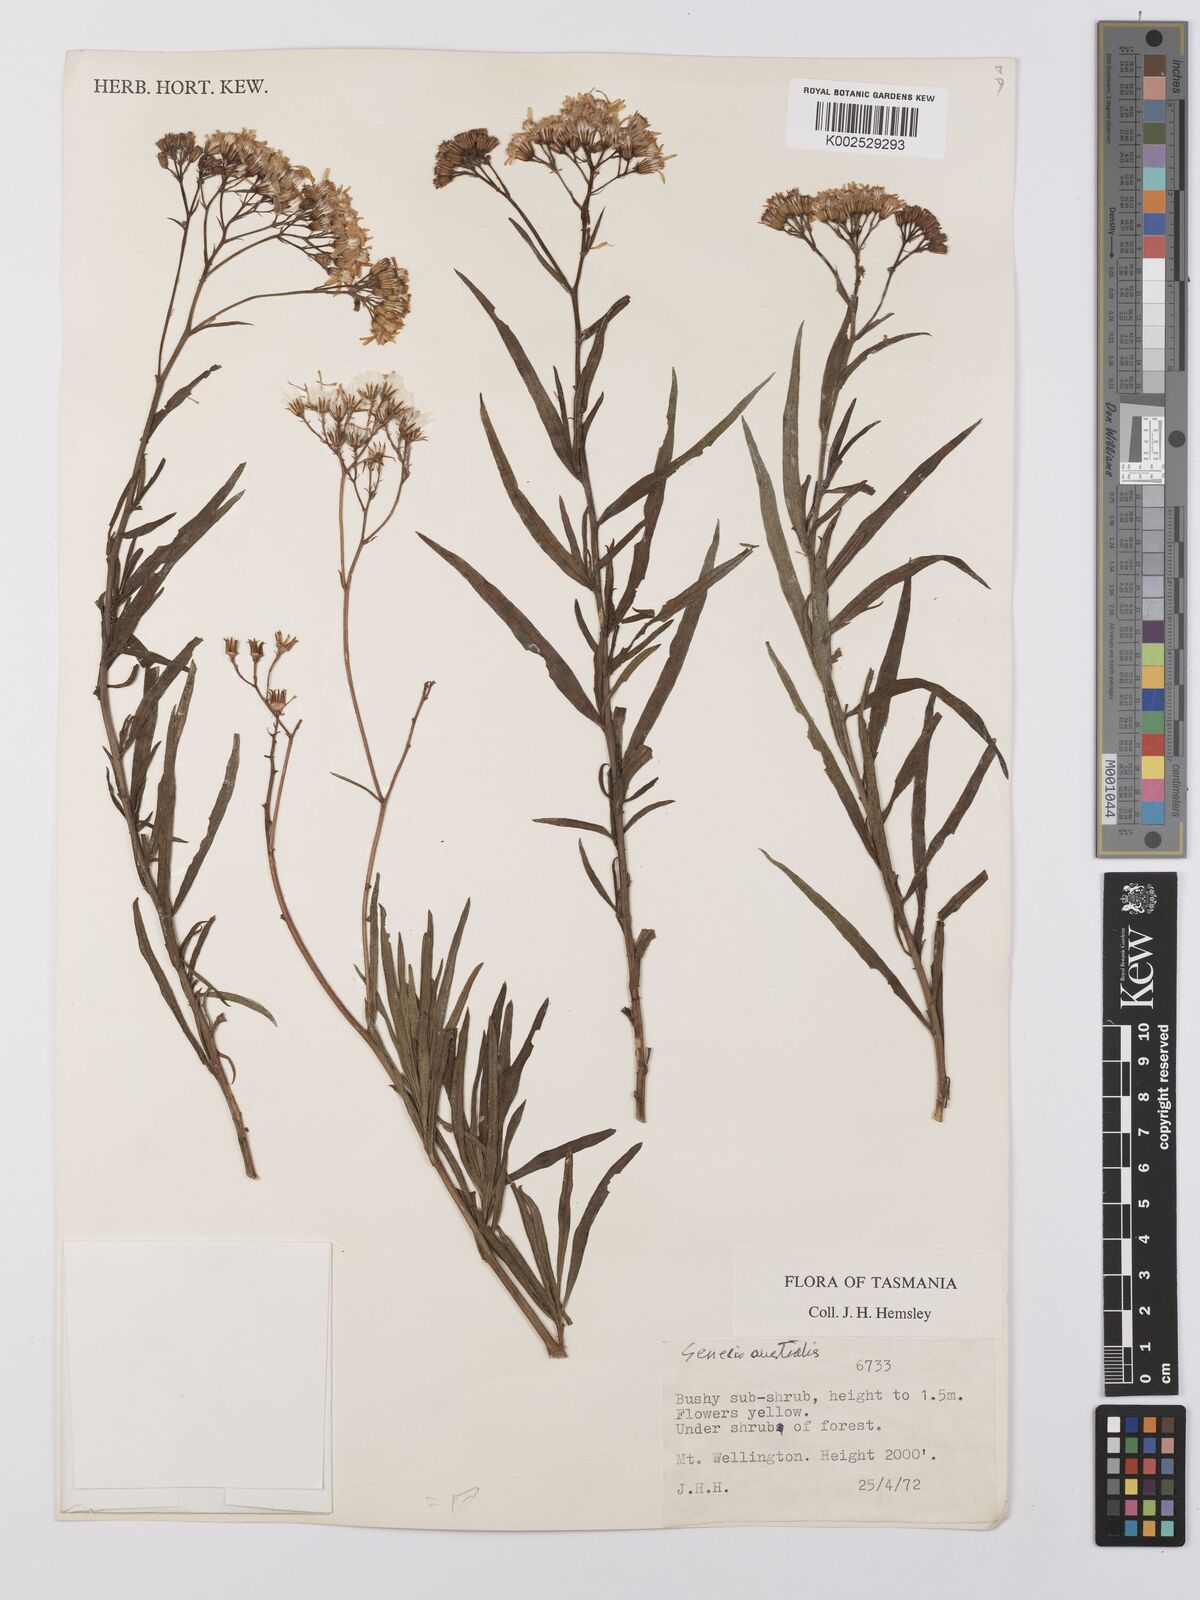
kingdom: Plantae
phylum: Tracheophyta
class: Magnoliopsida
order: Asterales
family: Asteraceae
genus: Senecio
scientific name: Senecio
